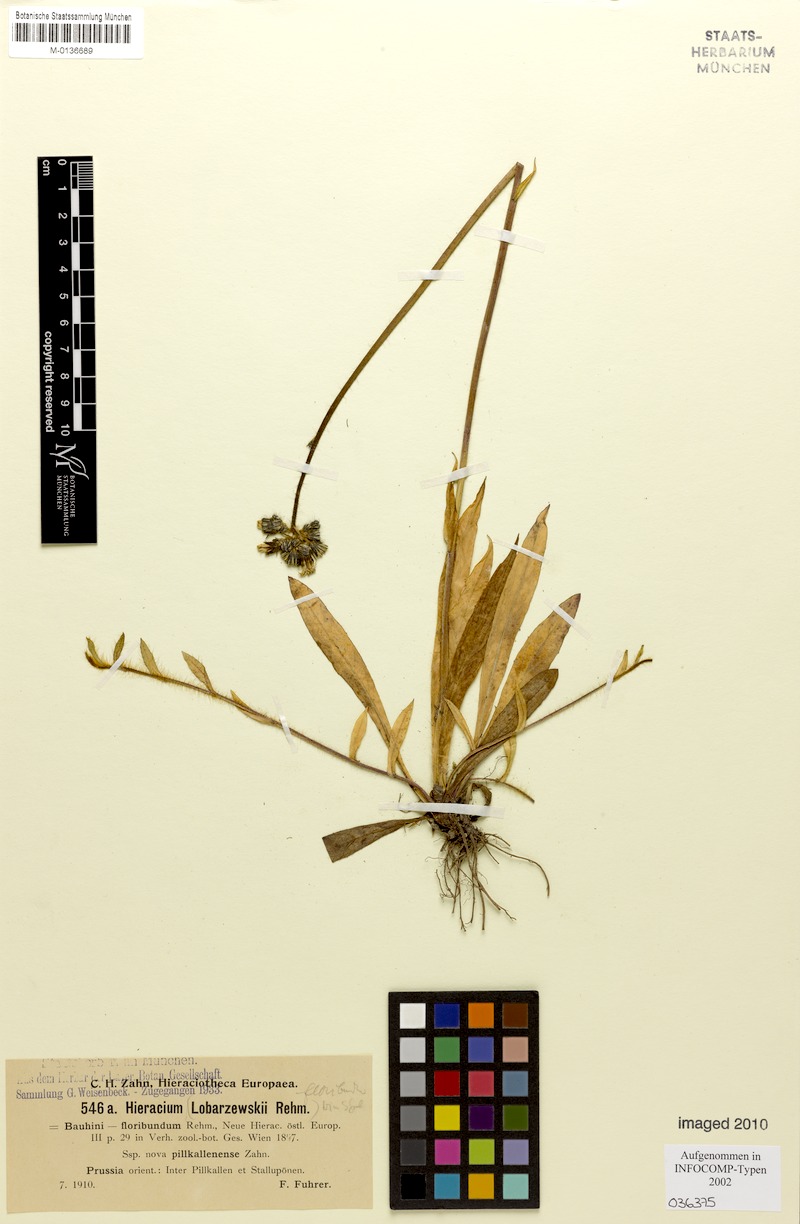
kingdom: Plantae
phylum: Tracheophyta
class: Magnoliopsida
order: Asterales
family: Asteraceae
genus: Pilosella
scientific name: Pilosella floribunda
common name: Glaucous hawkweed
